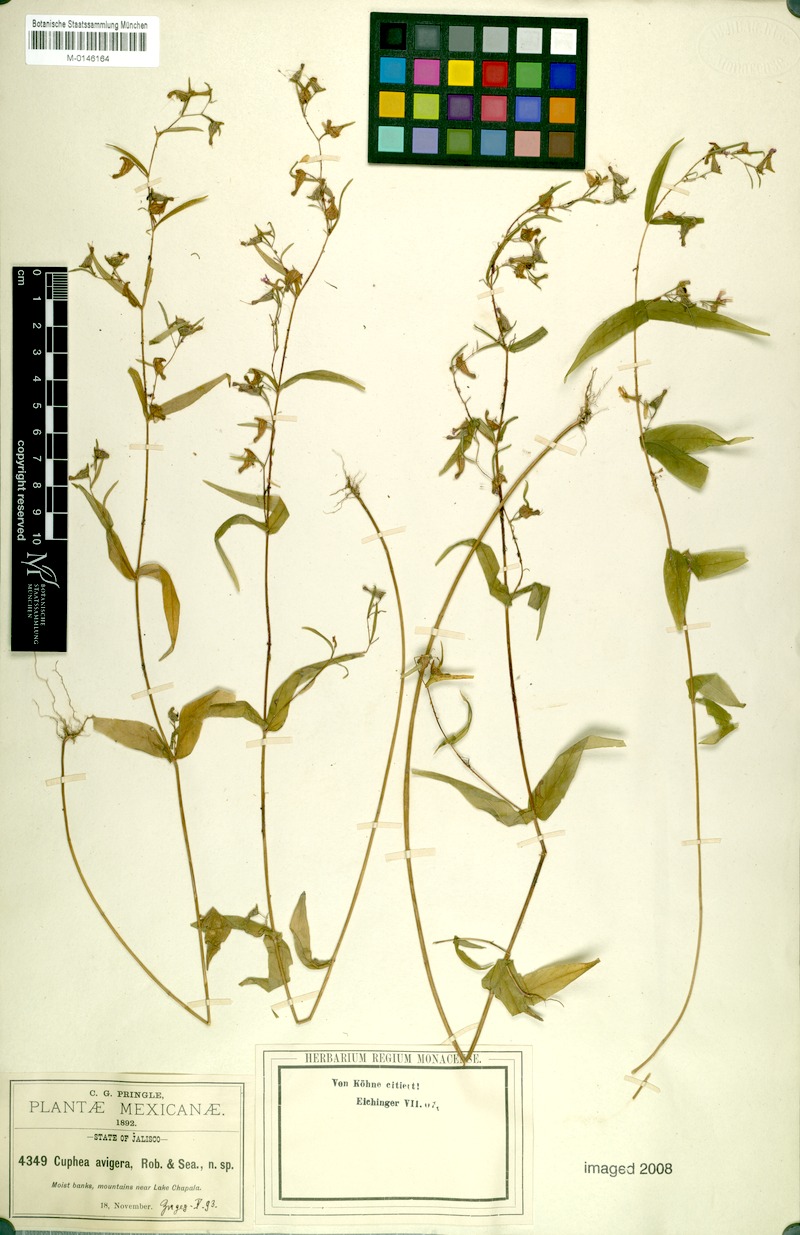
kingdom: Plantae
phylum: Tracheophyta
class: Magnoliopsida
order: Myrtales
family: Lythraceae
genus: Cuphea
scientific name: Cuphea avigera
